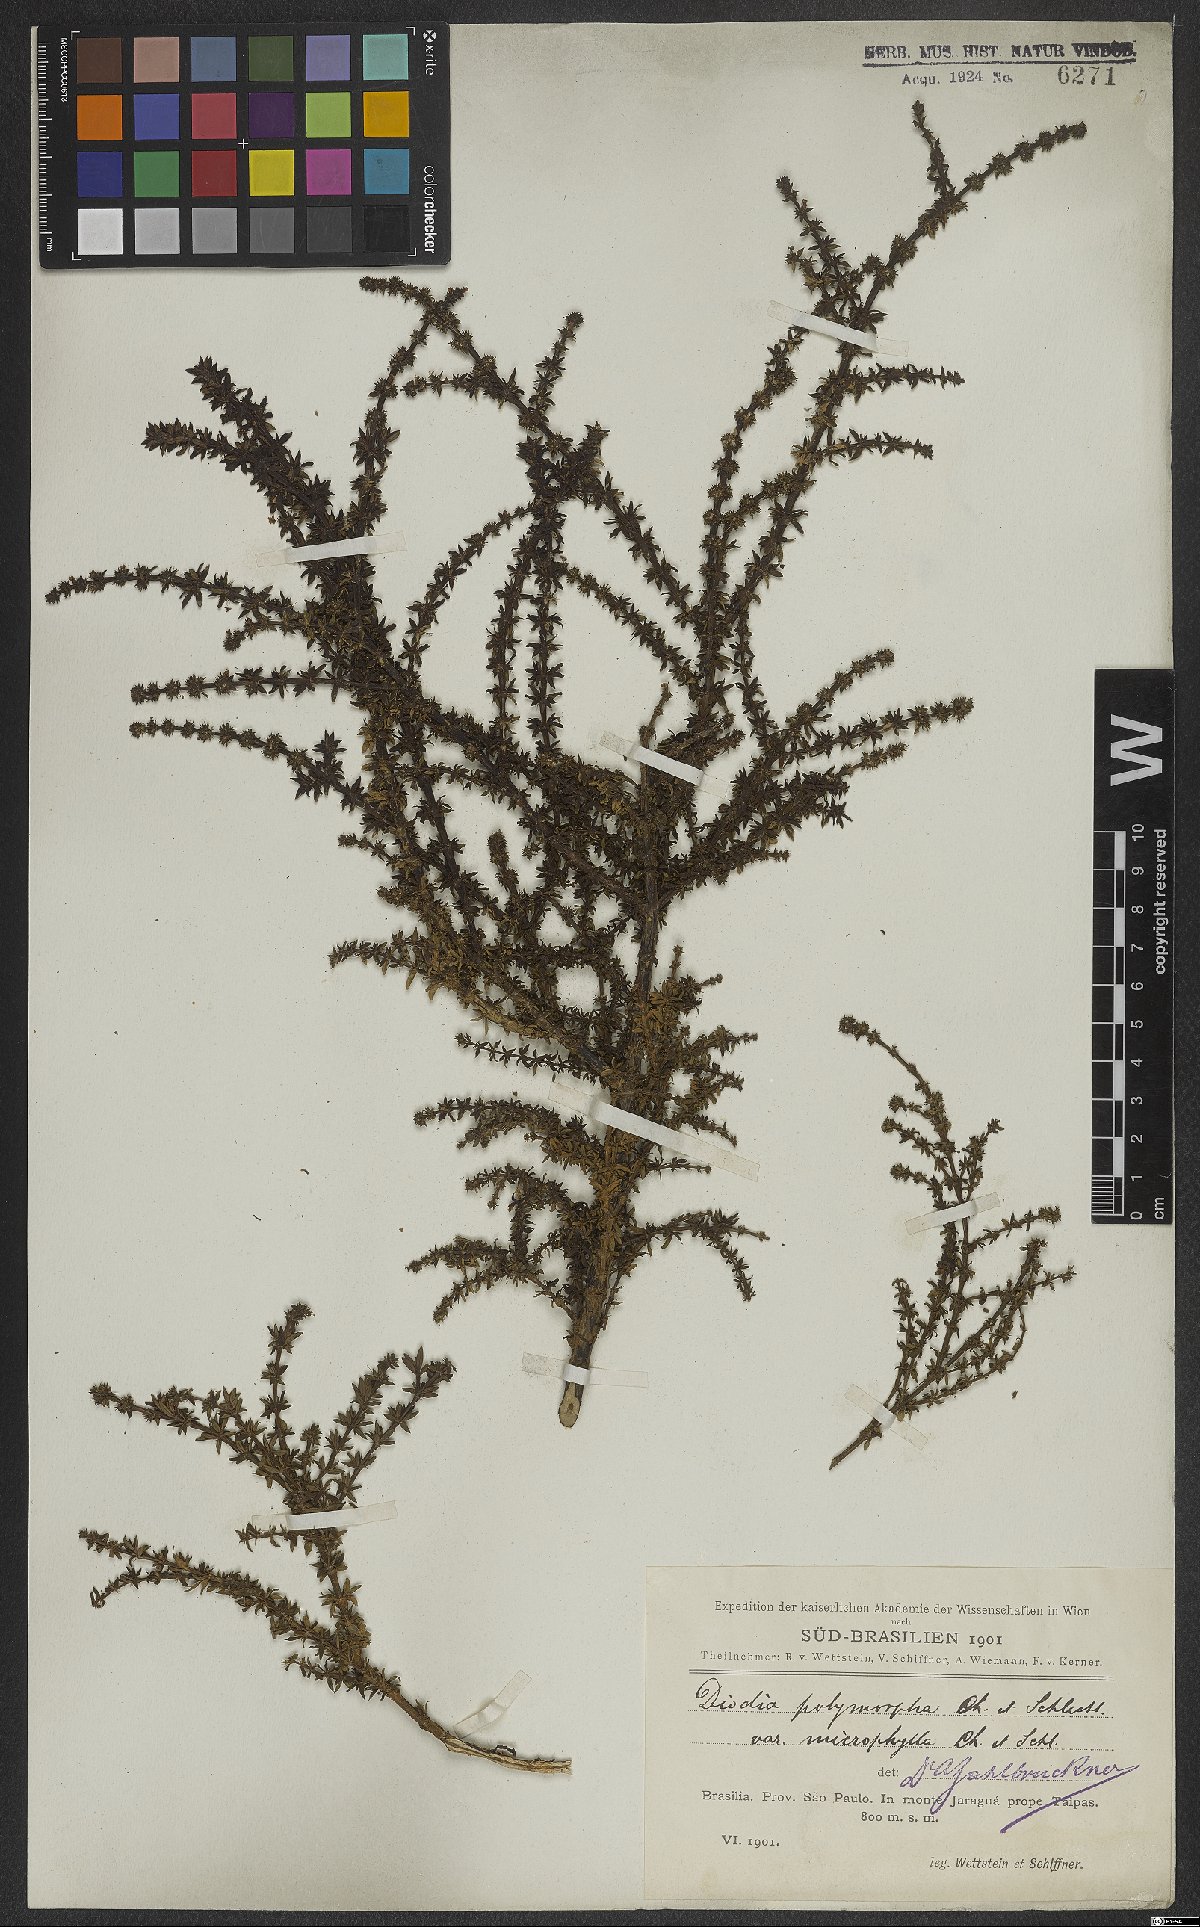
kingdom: Plantae
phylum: Tracheophyta
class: Magnoliopsida
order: Gentianales
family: Rubiaceae
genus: Galianthe
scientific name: Galianthe brasiliensis
